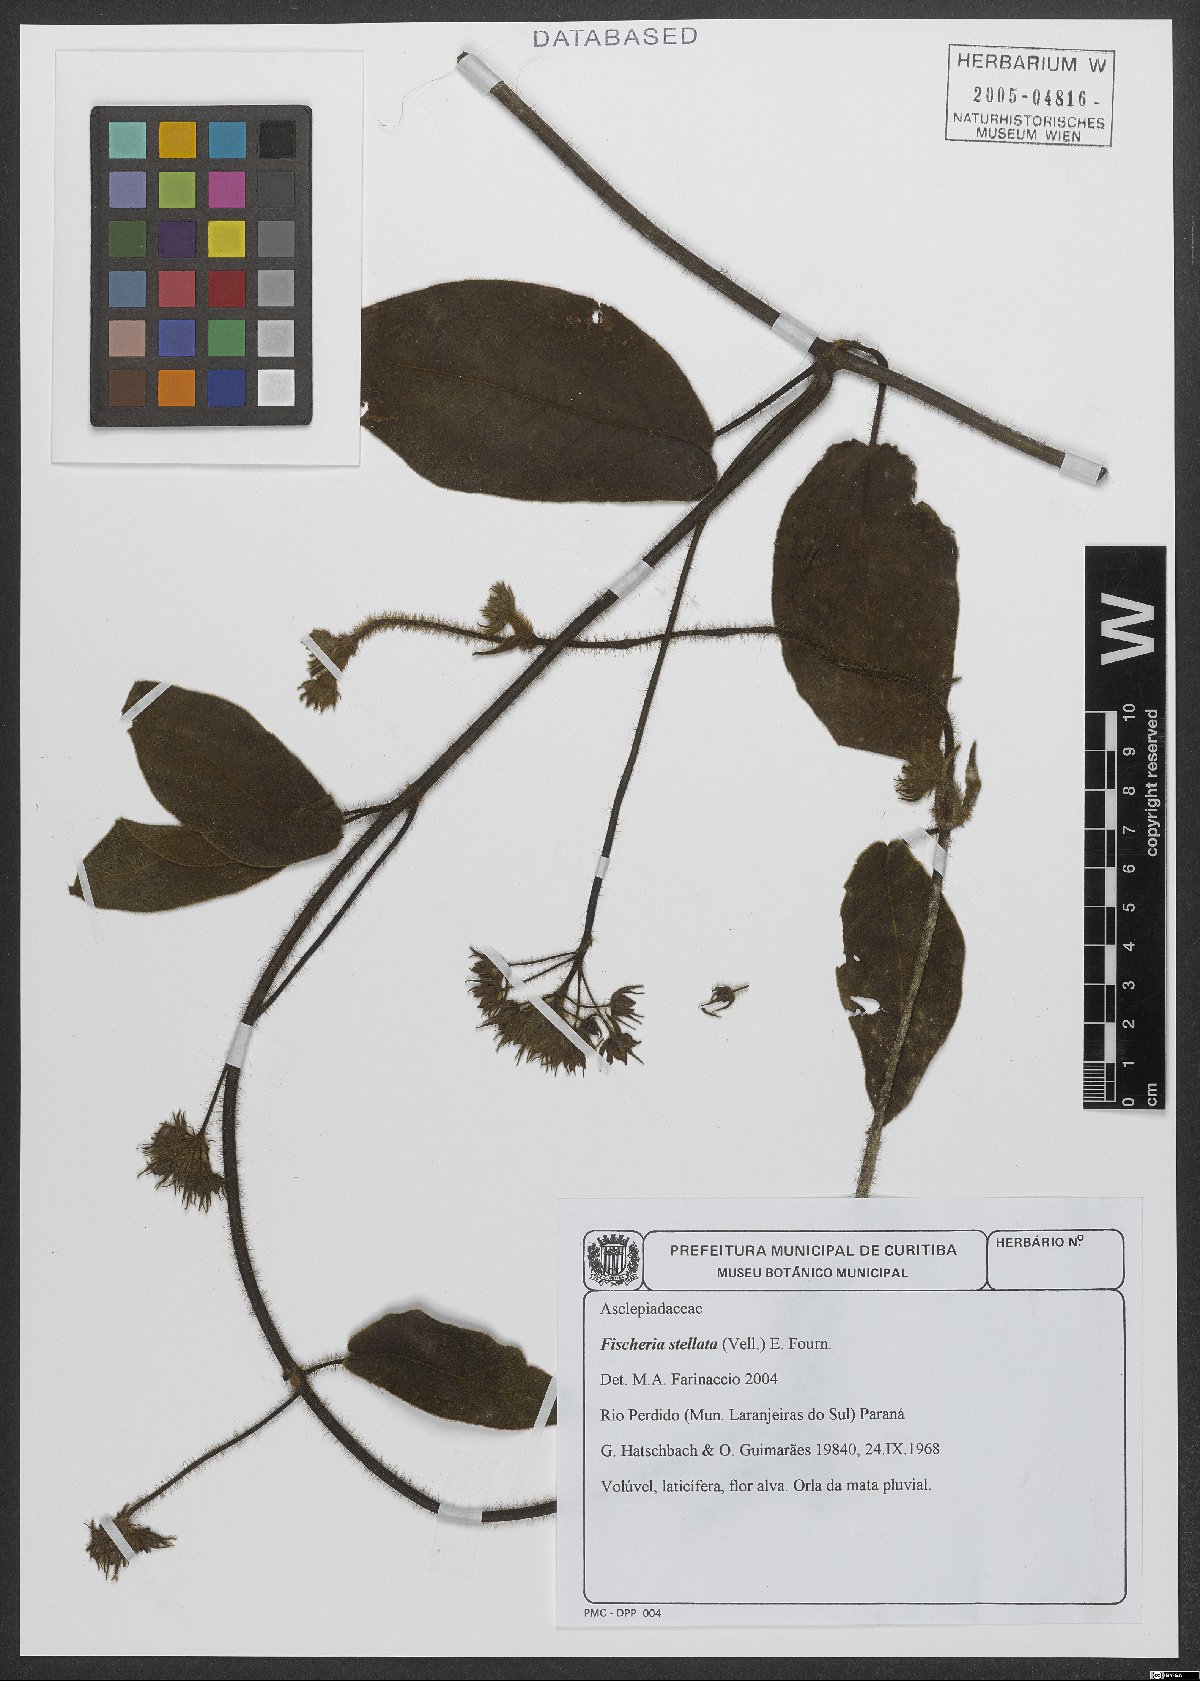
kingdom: Plantae
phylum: Tracheophyta
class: Magnoliopsida
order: Gentianales
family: Apocynaceae
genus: Fischeria
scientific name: Fischeria stellata
